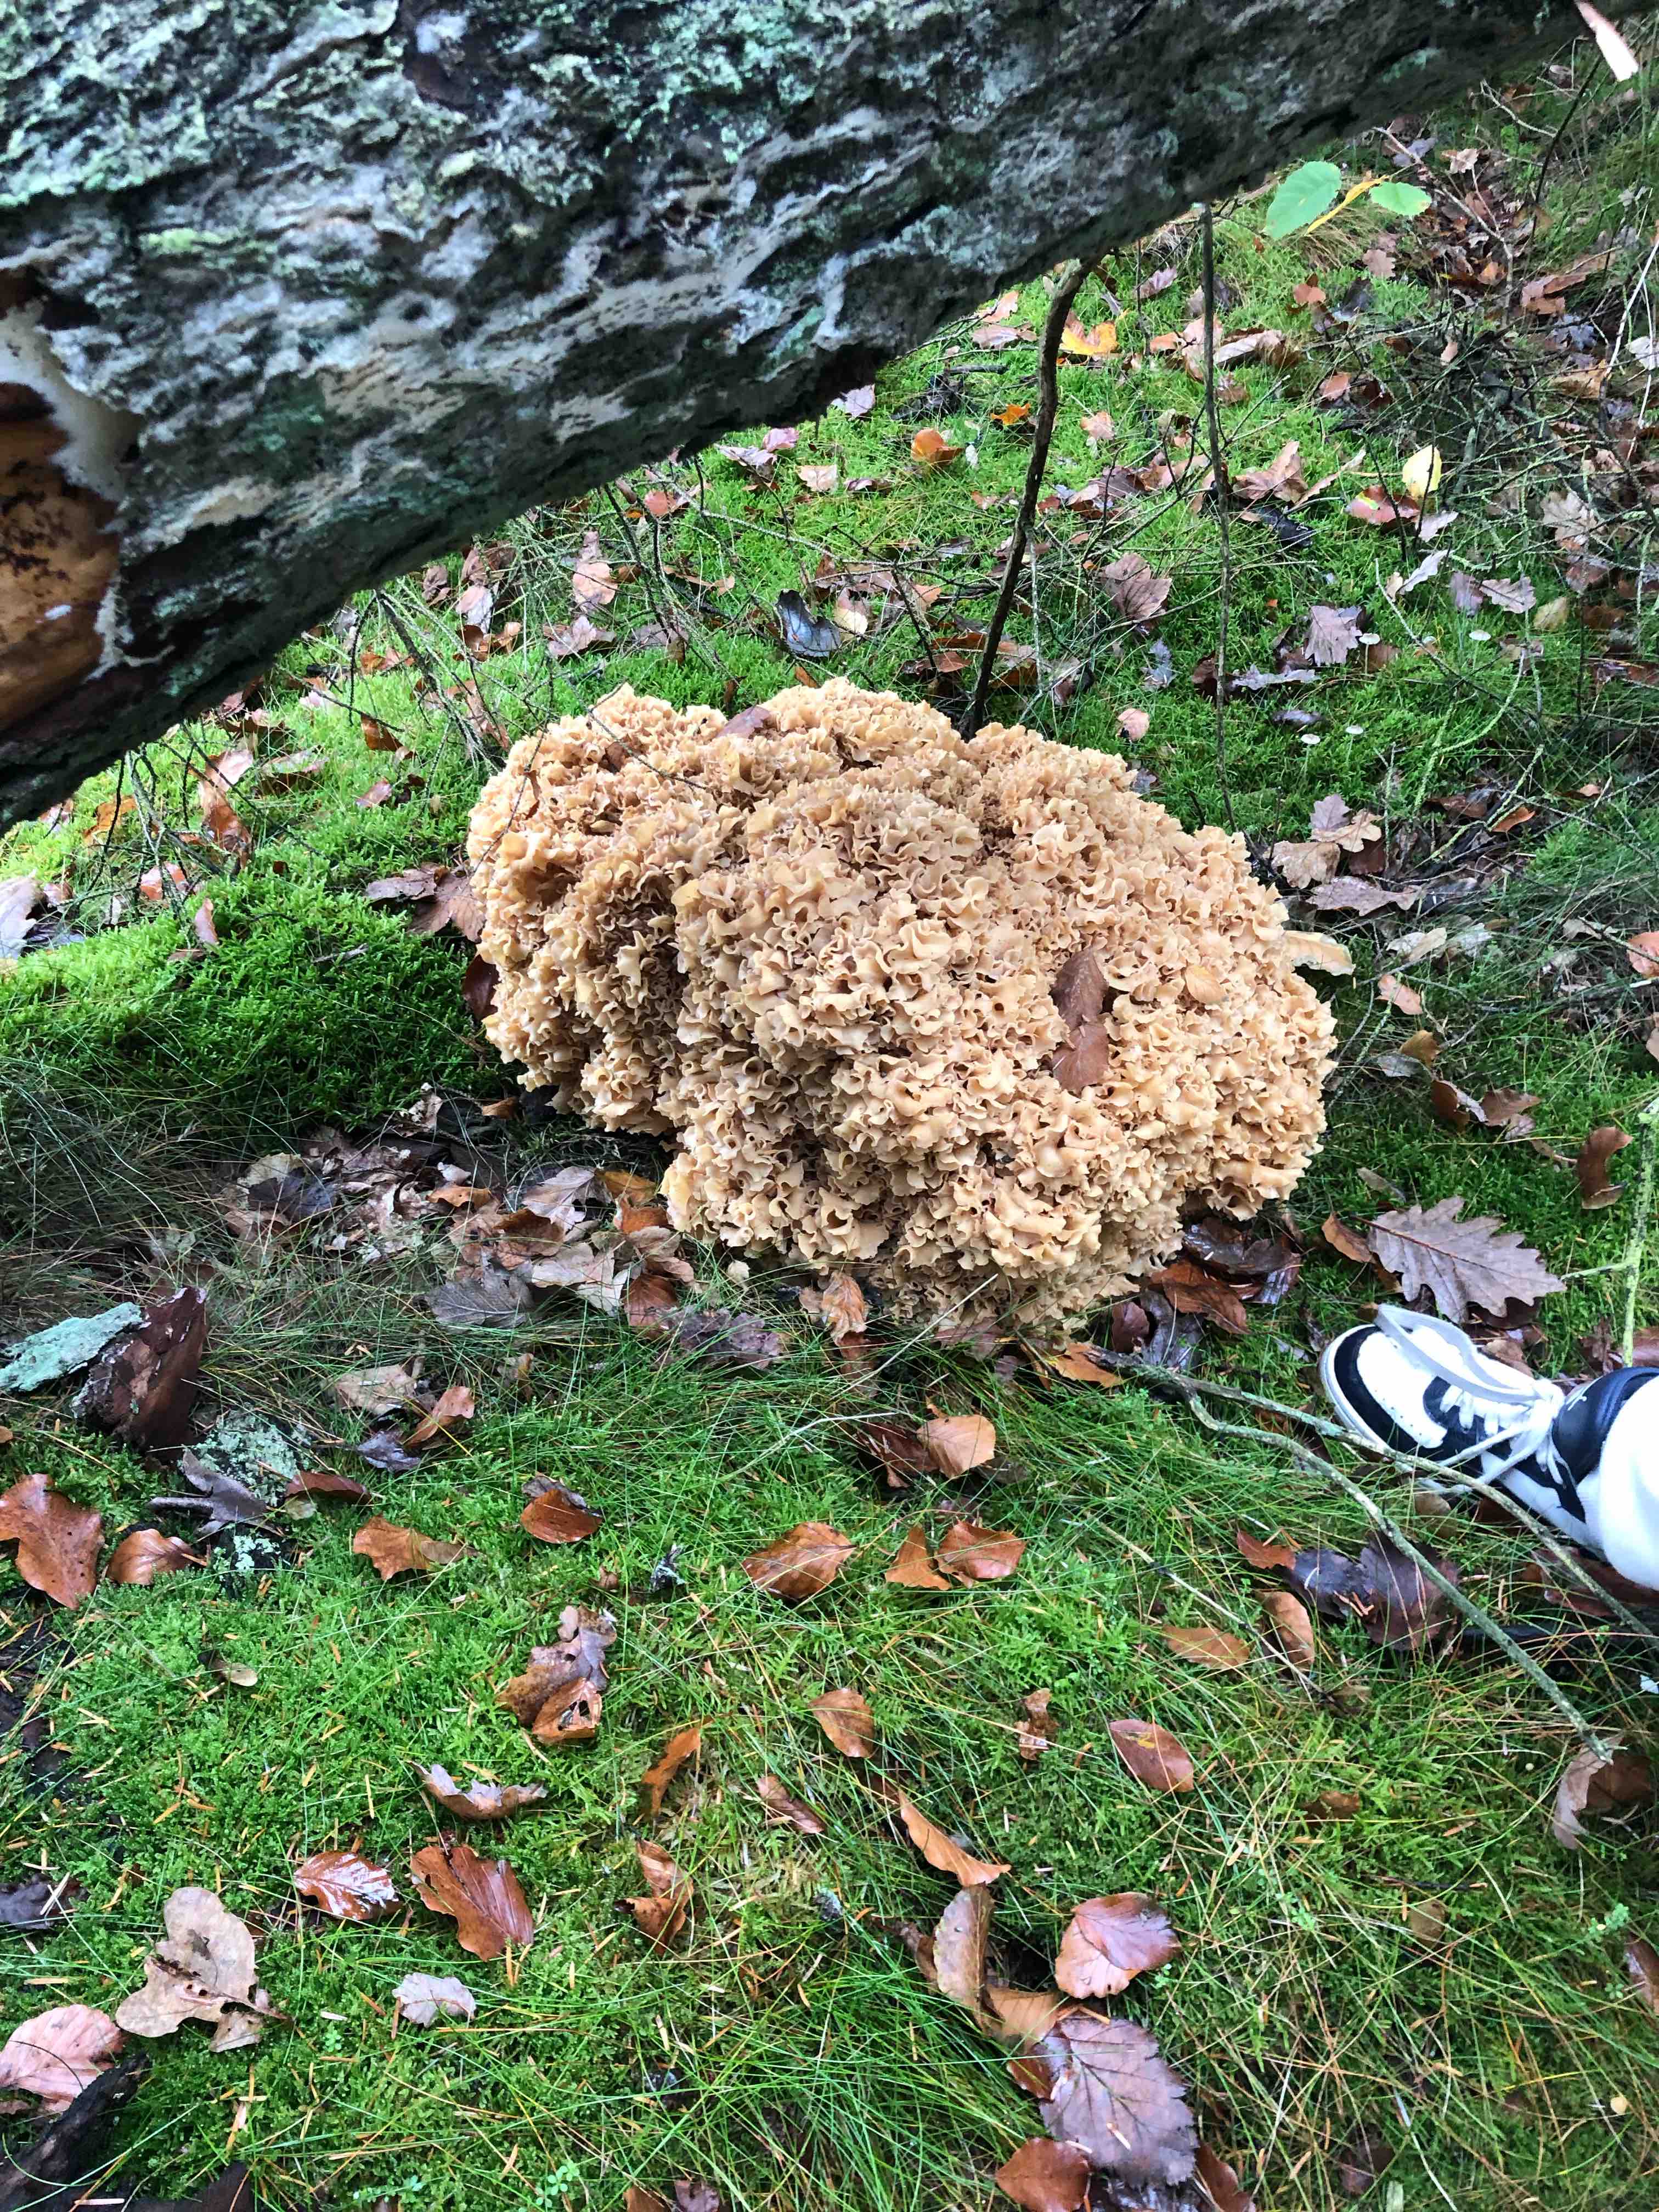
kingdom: Fungi
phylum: Basidiomycota
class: Agaricomycetes
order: Polyporales
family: Sparassidaceae
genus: Sparassis
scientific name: Sparassis crispa
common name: kruset blomkålssvamp
